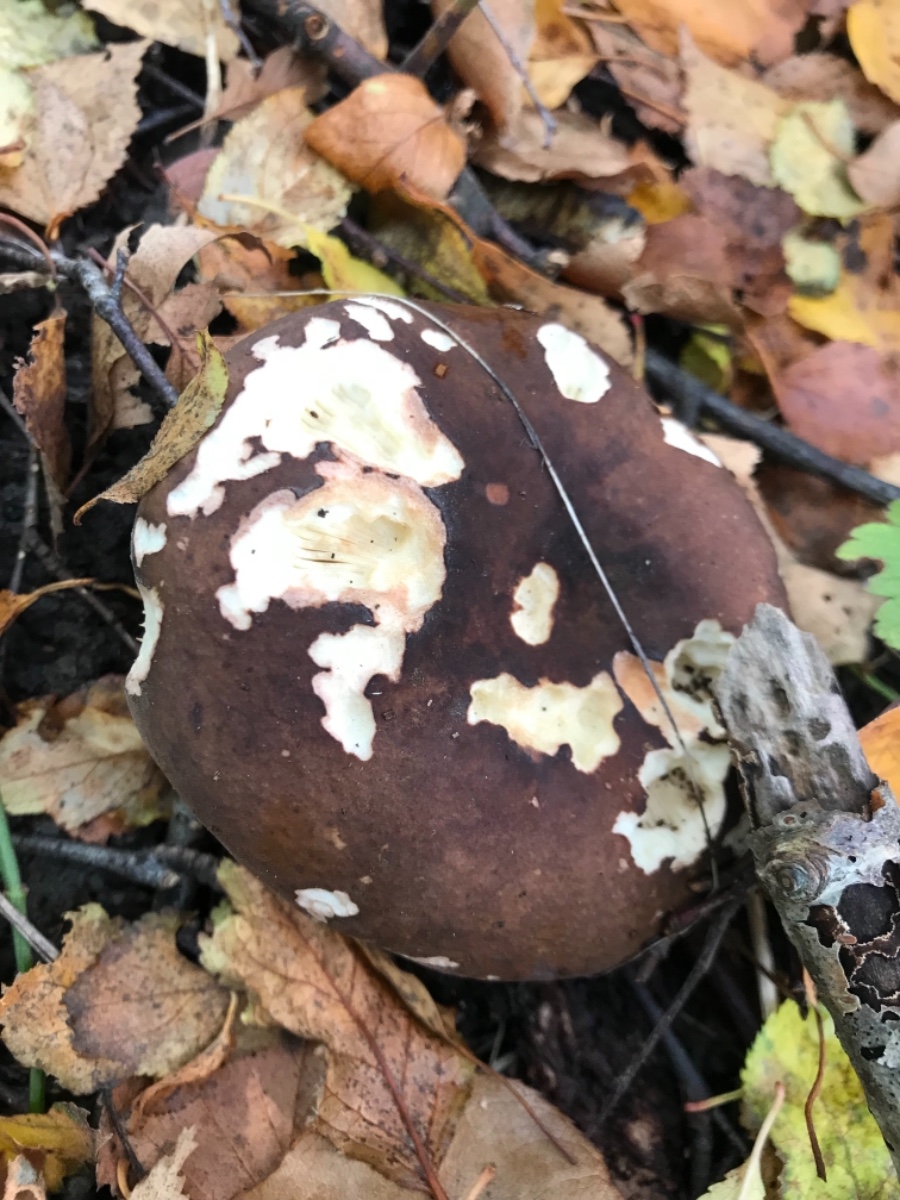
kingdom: Fungi
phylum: Basidiomycota
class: Agaricomycetes
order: Russulales
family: Russulaceae
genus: Russula
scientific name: Russula
